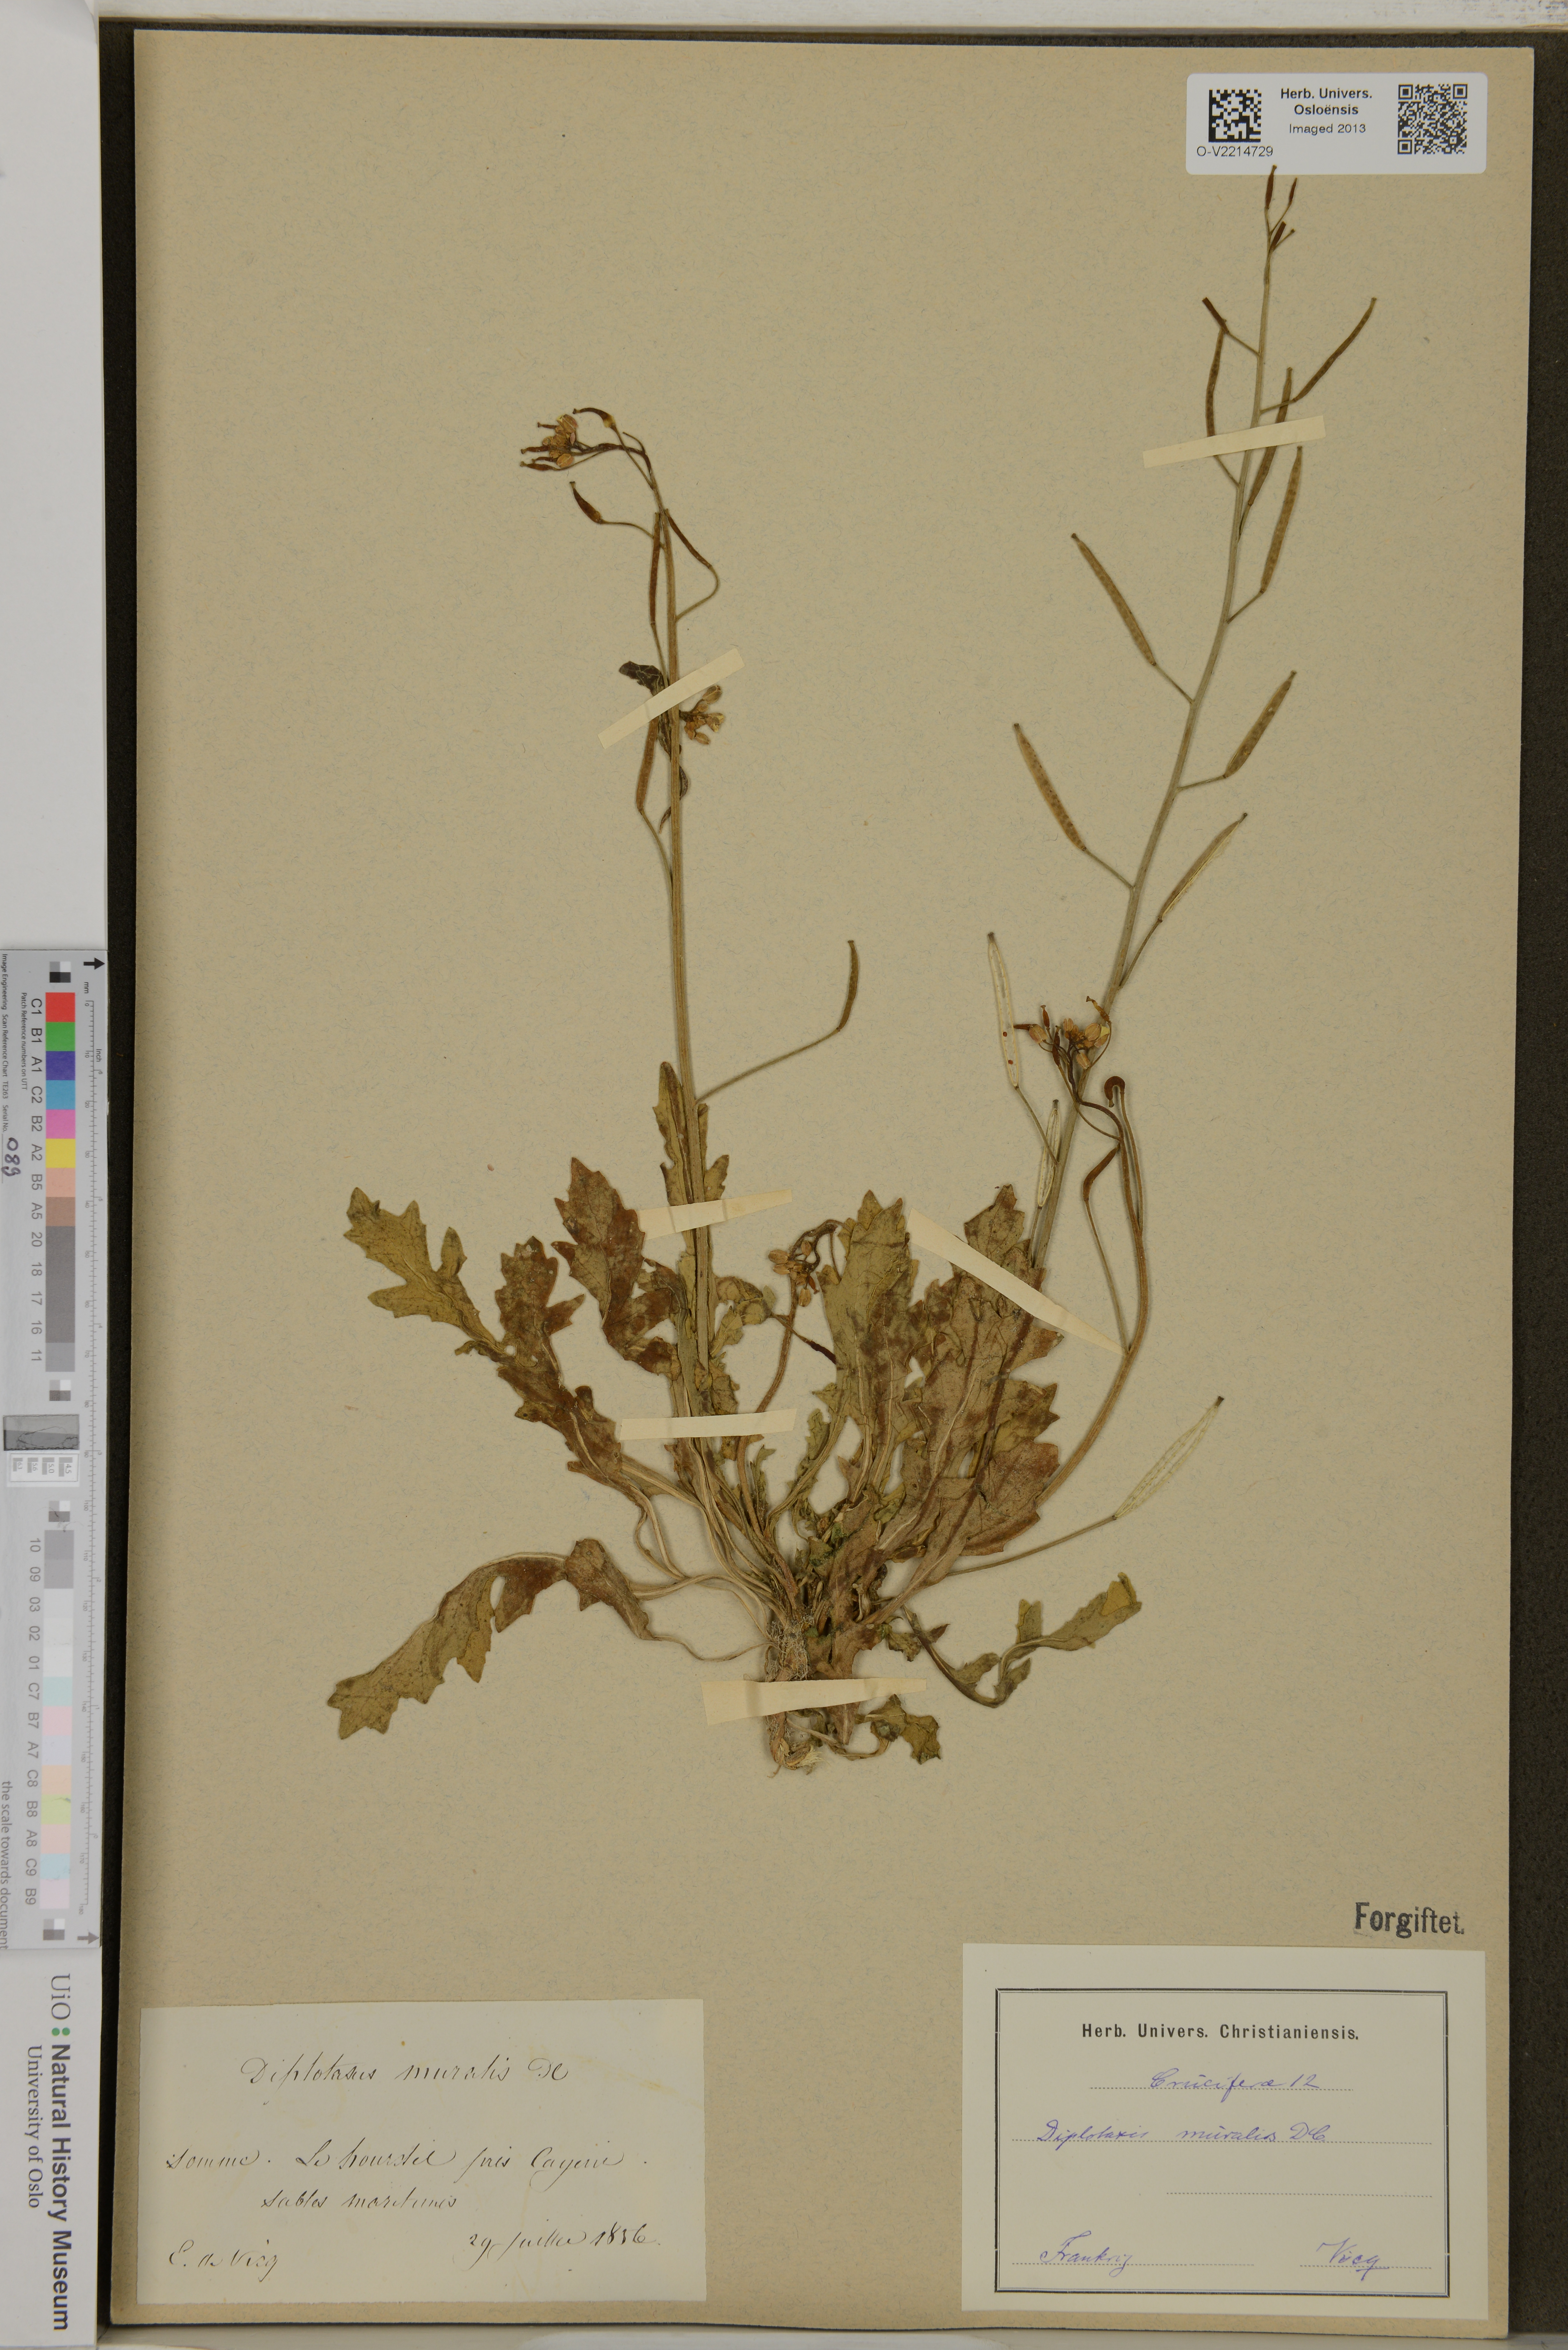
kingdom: Plantae
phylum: Tracheophyta
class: Magnoliopsida
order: Brassicales
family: Brassicaceae
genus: Diplotaxis
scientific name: Diplotaxis muralis
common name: Annual wall-rocket
